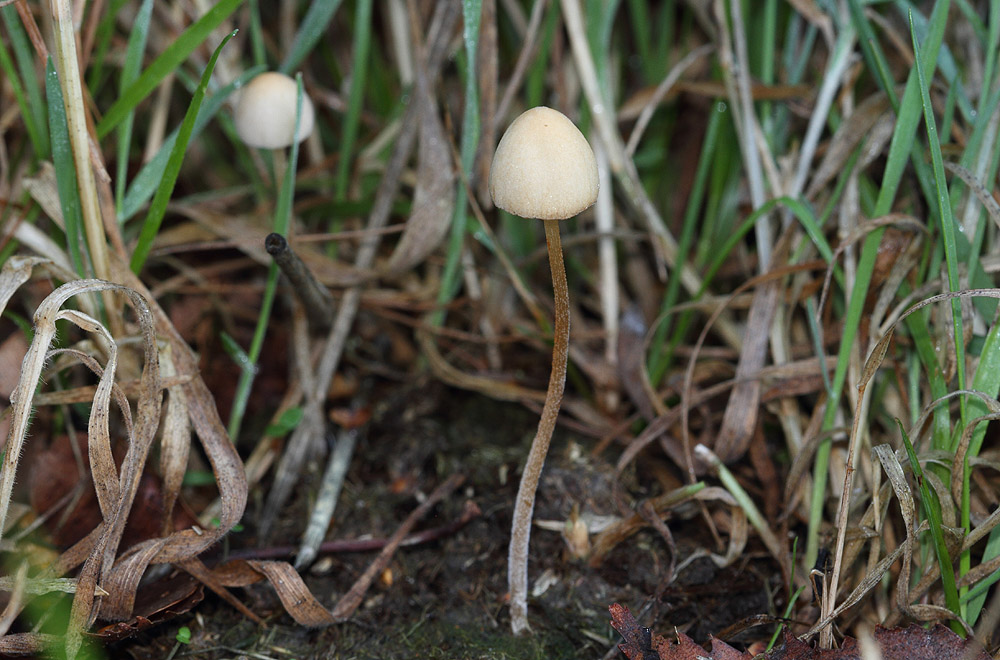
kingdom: Fungi
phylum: Basidiomycota
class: Agaricomycetes
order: Agaricales
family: Bolbitiaceae
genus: Conocybe
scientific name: Conocybe rickenii
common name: møg-keglehat
